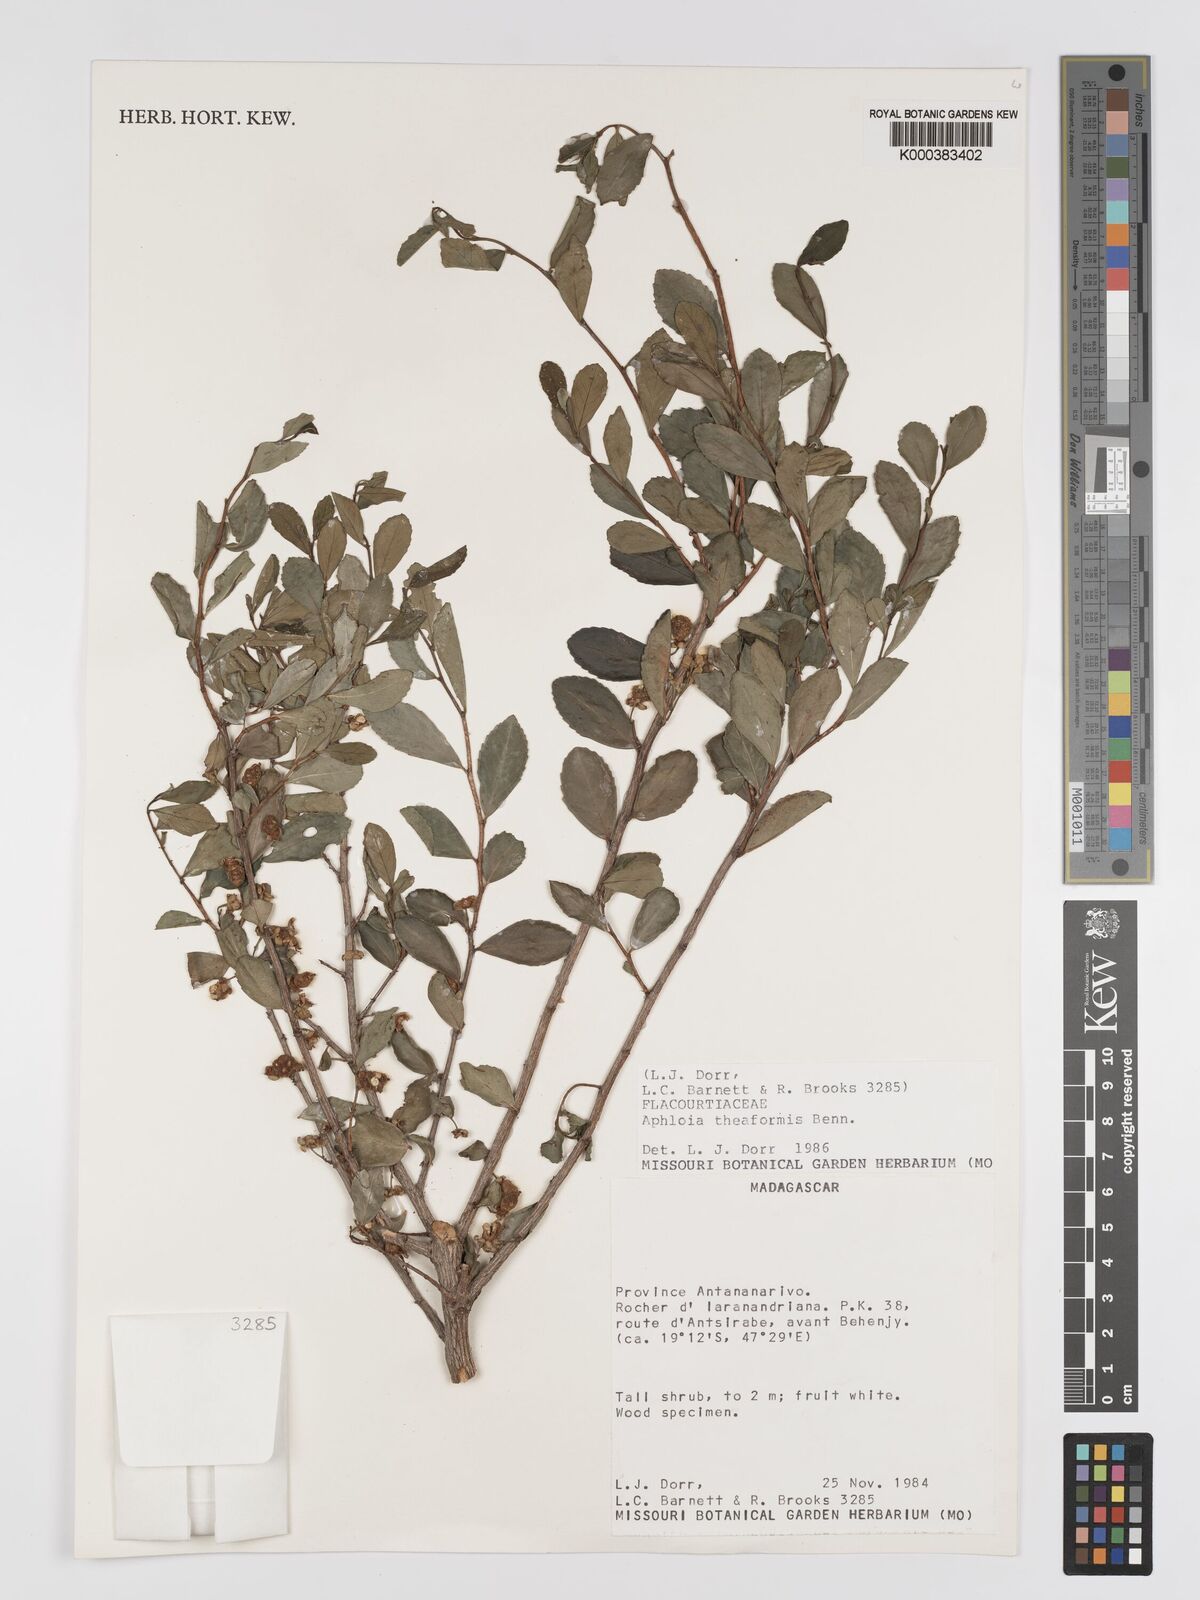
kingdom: Plantae
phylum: Tracheophyta
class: Magnoliopsida
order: Crossosomatales
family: Aphloiaceae
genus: Aphloia
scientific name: Aphloia theiformis
